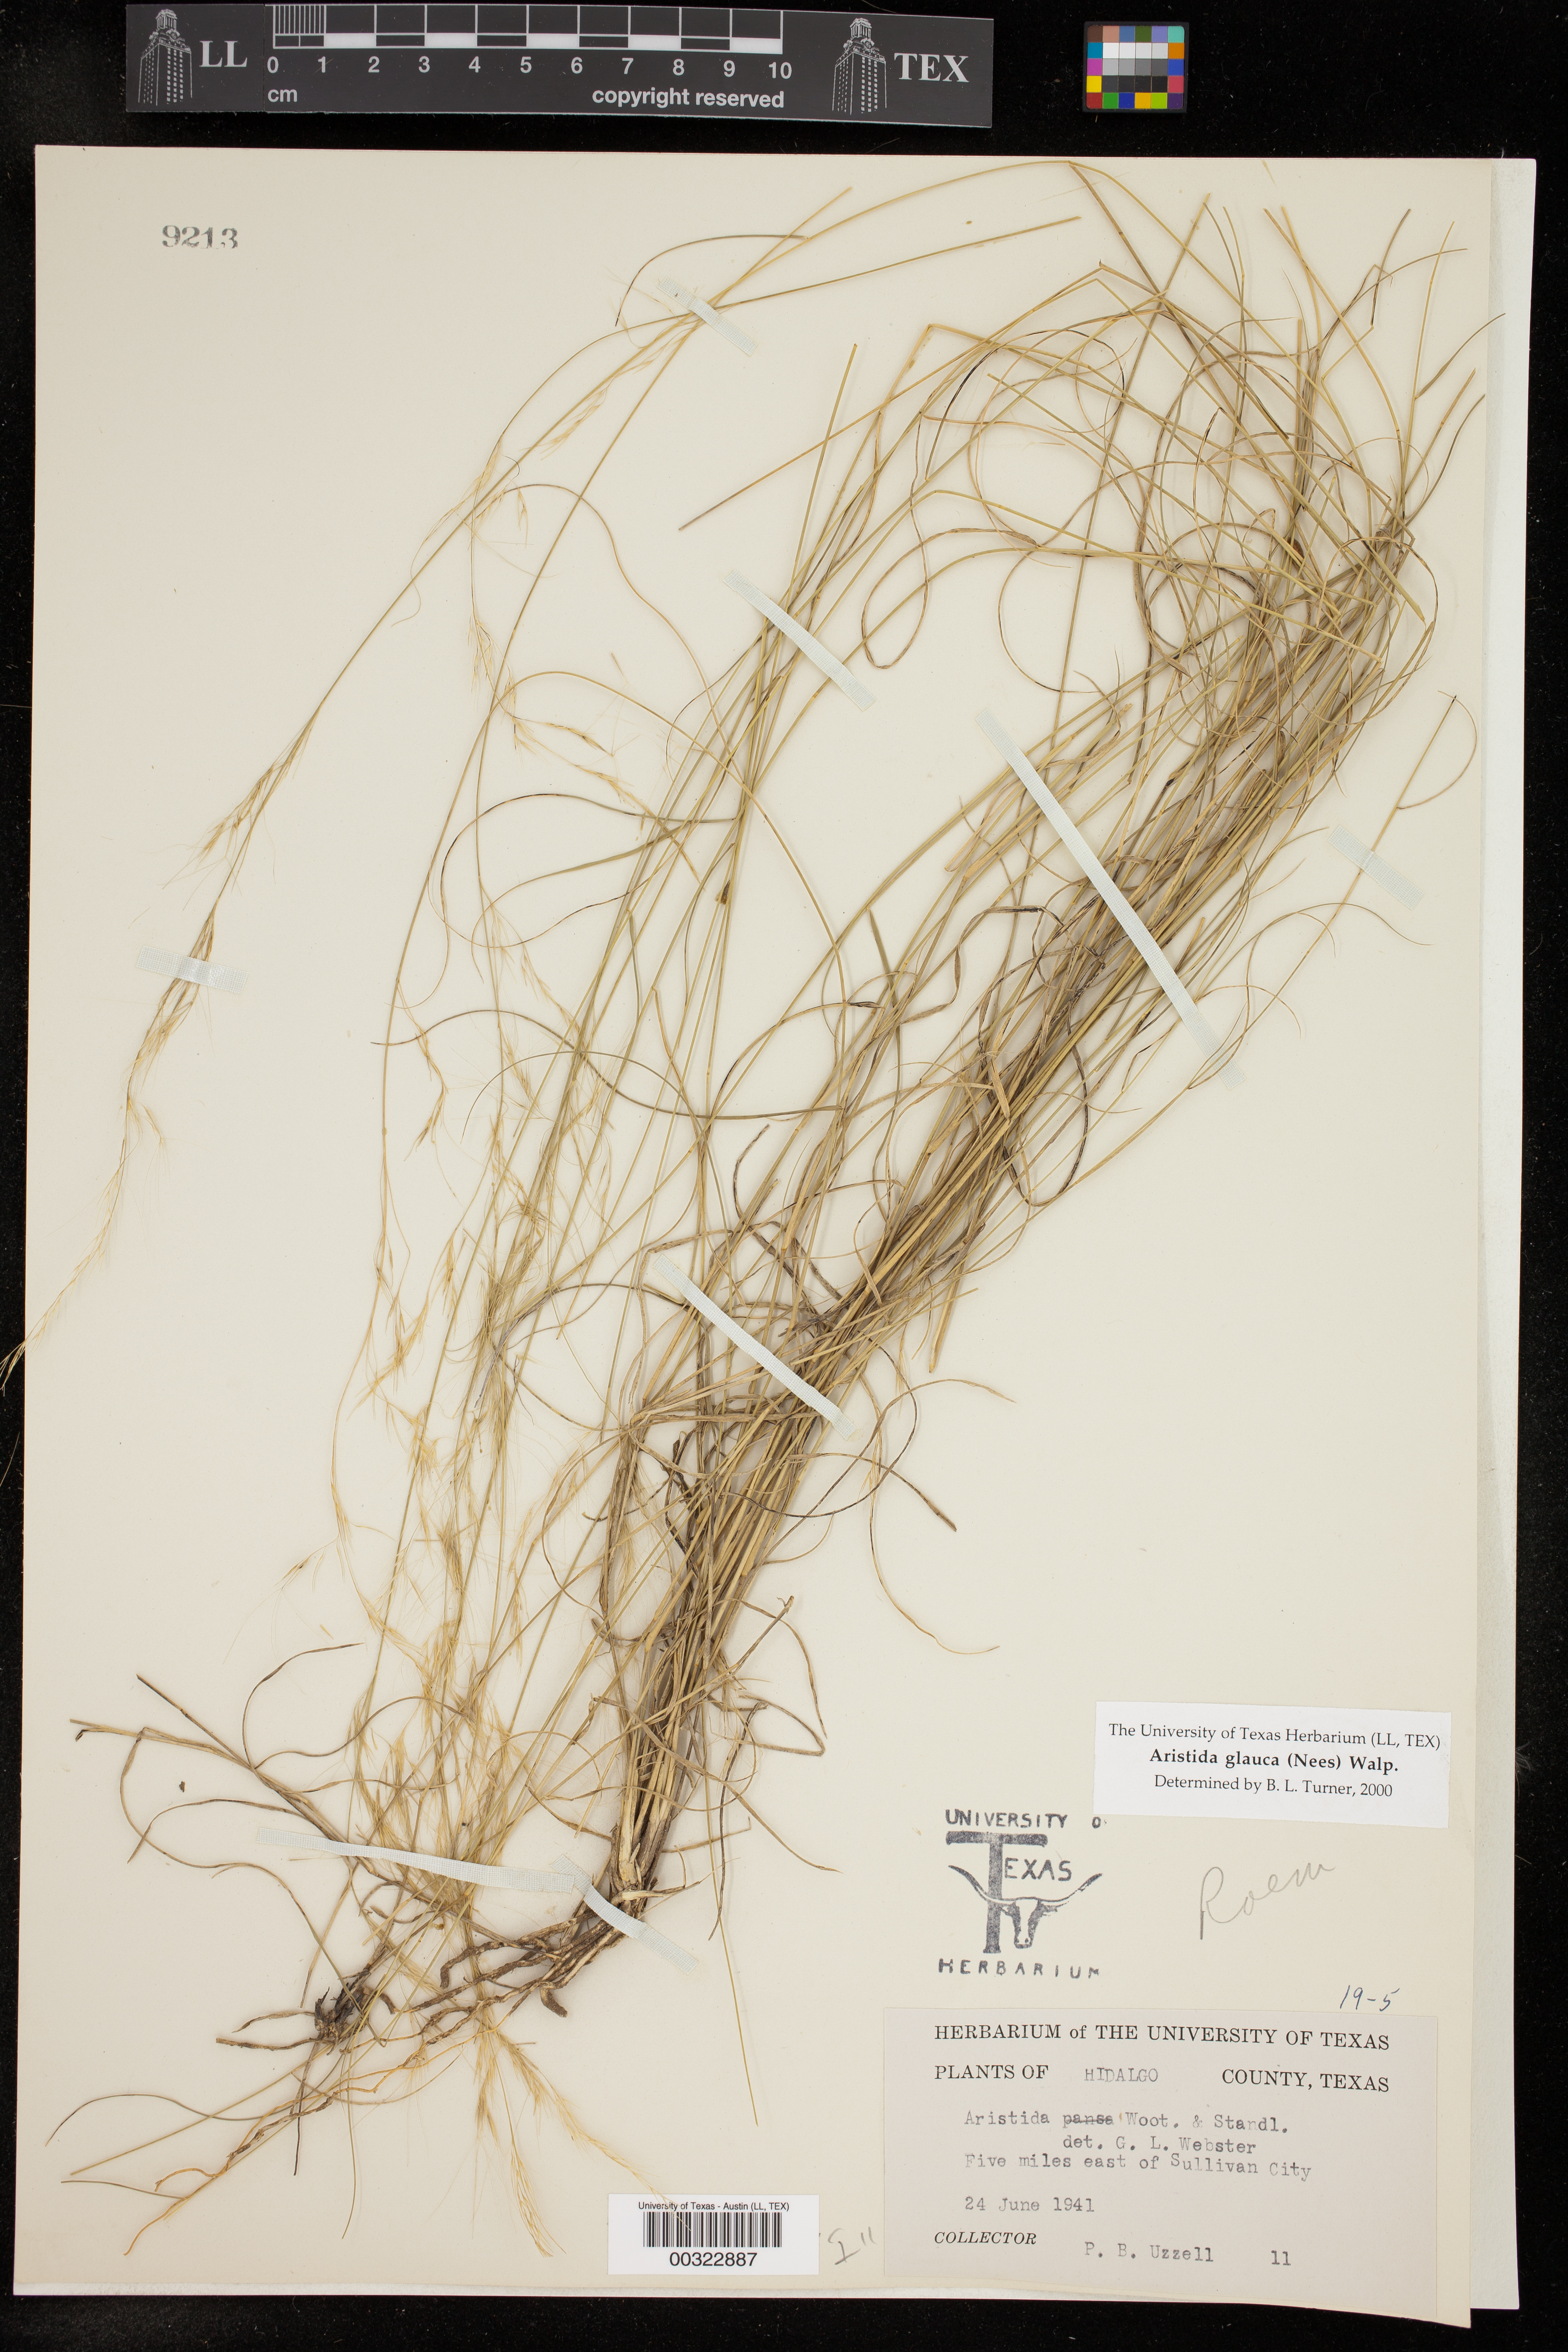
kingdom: Plantae
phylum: Tracheophyta
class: Liliopsida
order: Poales
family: Poaceae
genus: Aristida
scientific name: Aristida glauca
